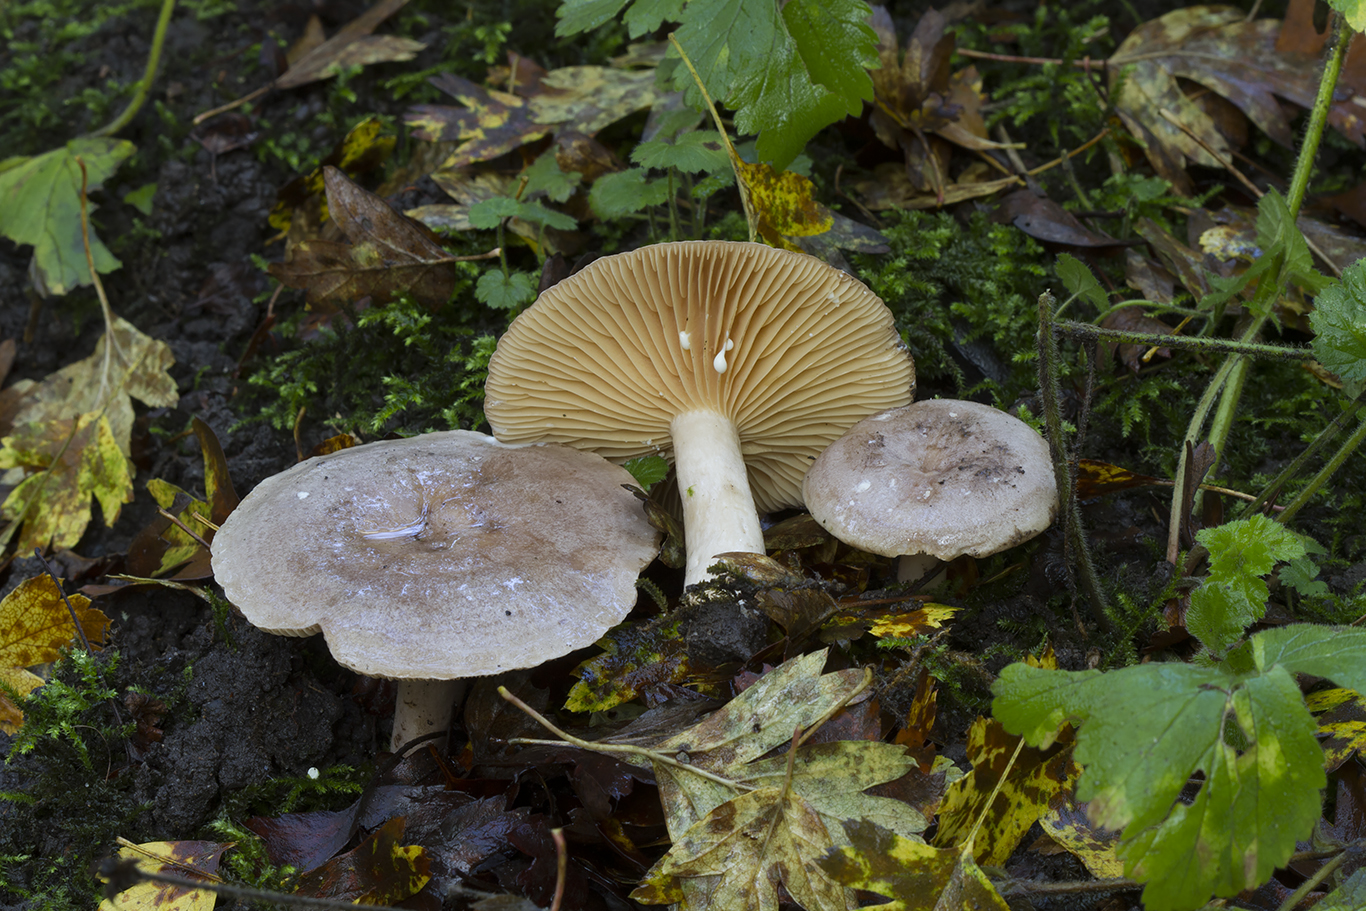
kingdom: Fungi
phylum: Basidiomycota
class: Agaricomycetes
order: Russulales
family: Russulaceae
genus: Lactarius
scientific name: Lactarius pyrogalus
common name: hassel-mælkehat
